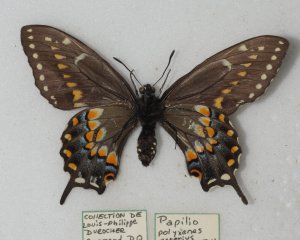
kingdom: Animalia
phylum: Arthropoda
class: Insecta
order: Lepidoptera
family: Papilionidae
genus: Papilio
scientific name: Papilio polyxenes
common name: Black Swallowtail
